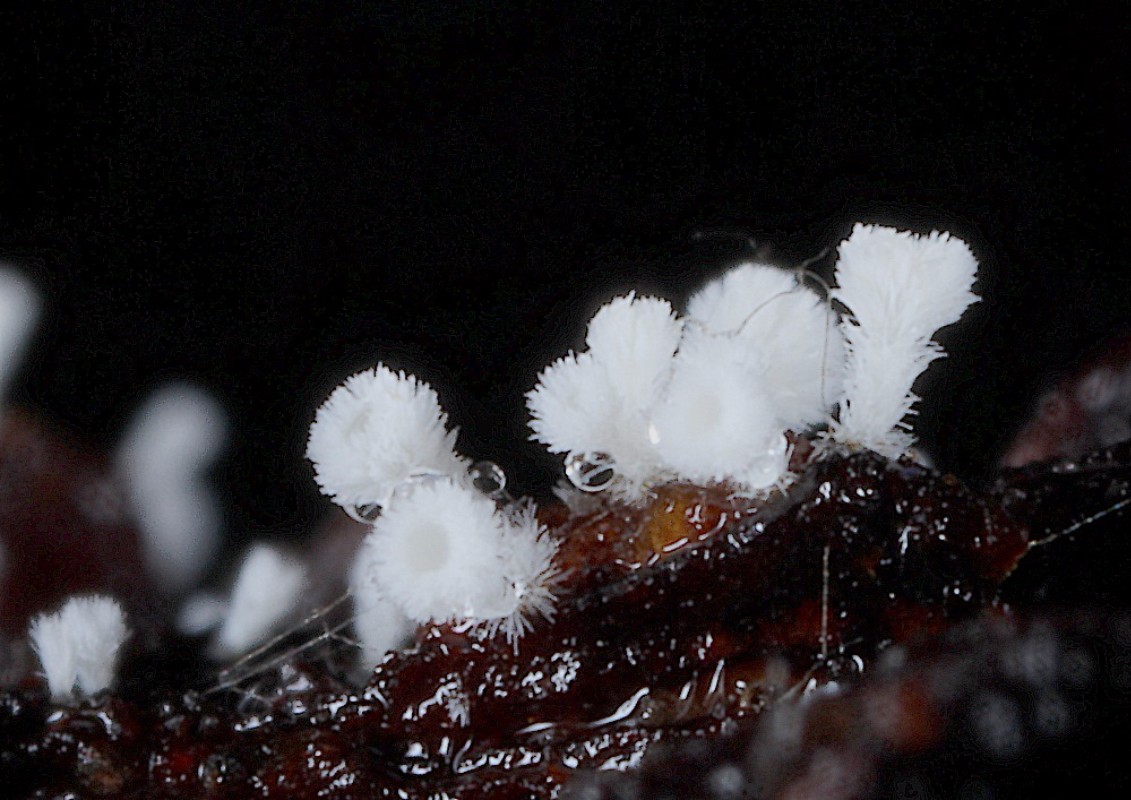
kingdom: Fungi
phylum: Ascomycota
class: Leotiomycetes
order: Helotiales
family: Lachnaceae
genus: Lachnum
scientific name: Lachnum virgineum
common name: jomfru-frynseskive
